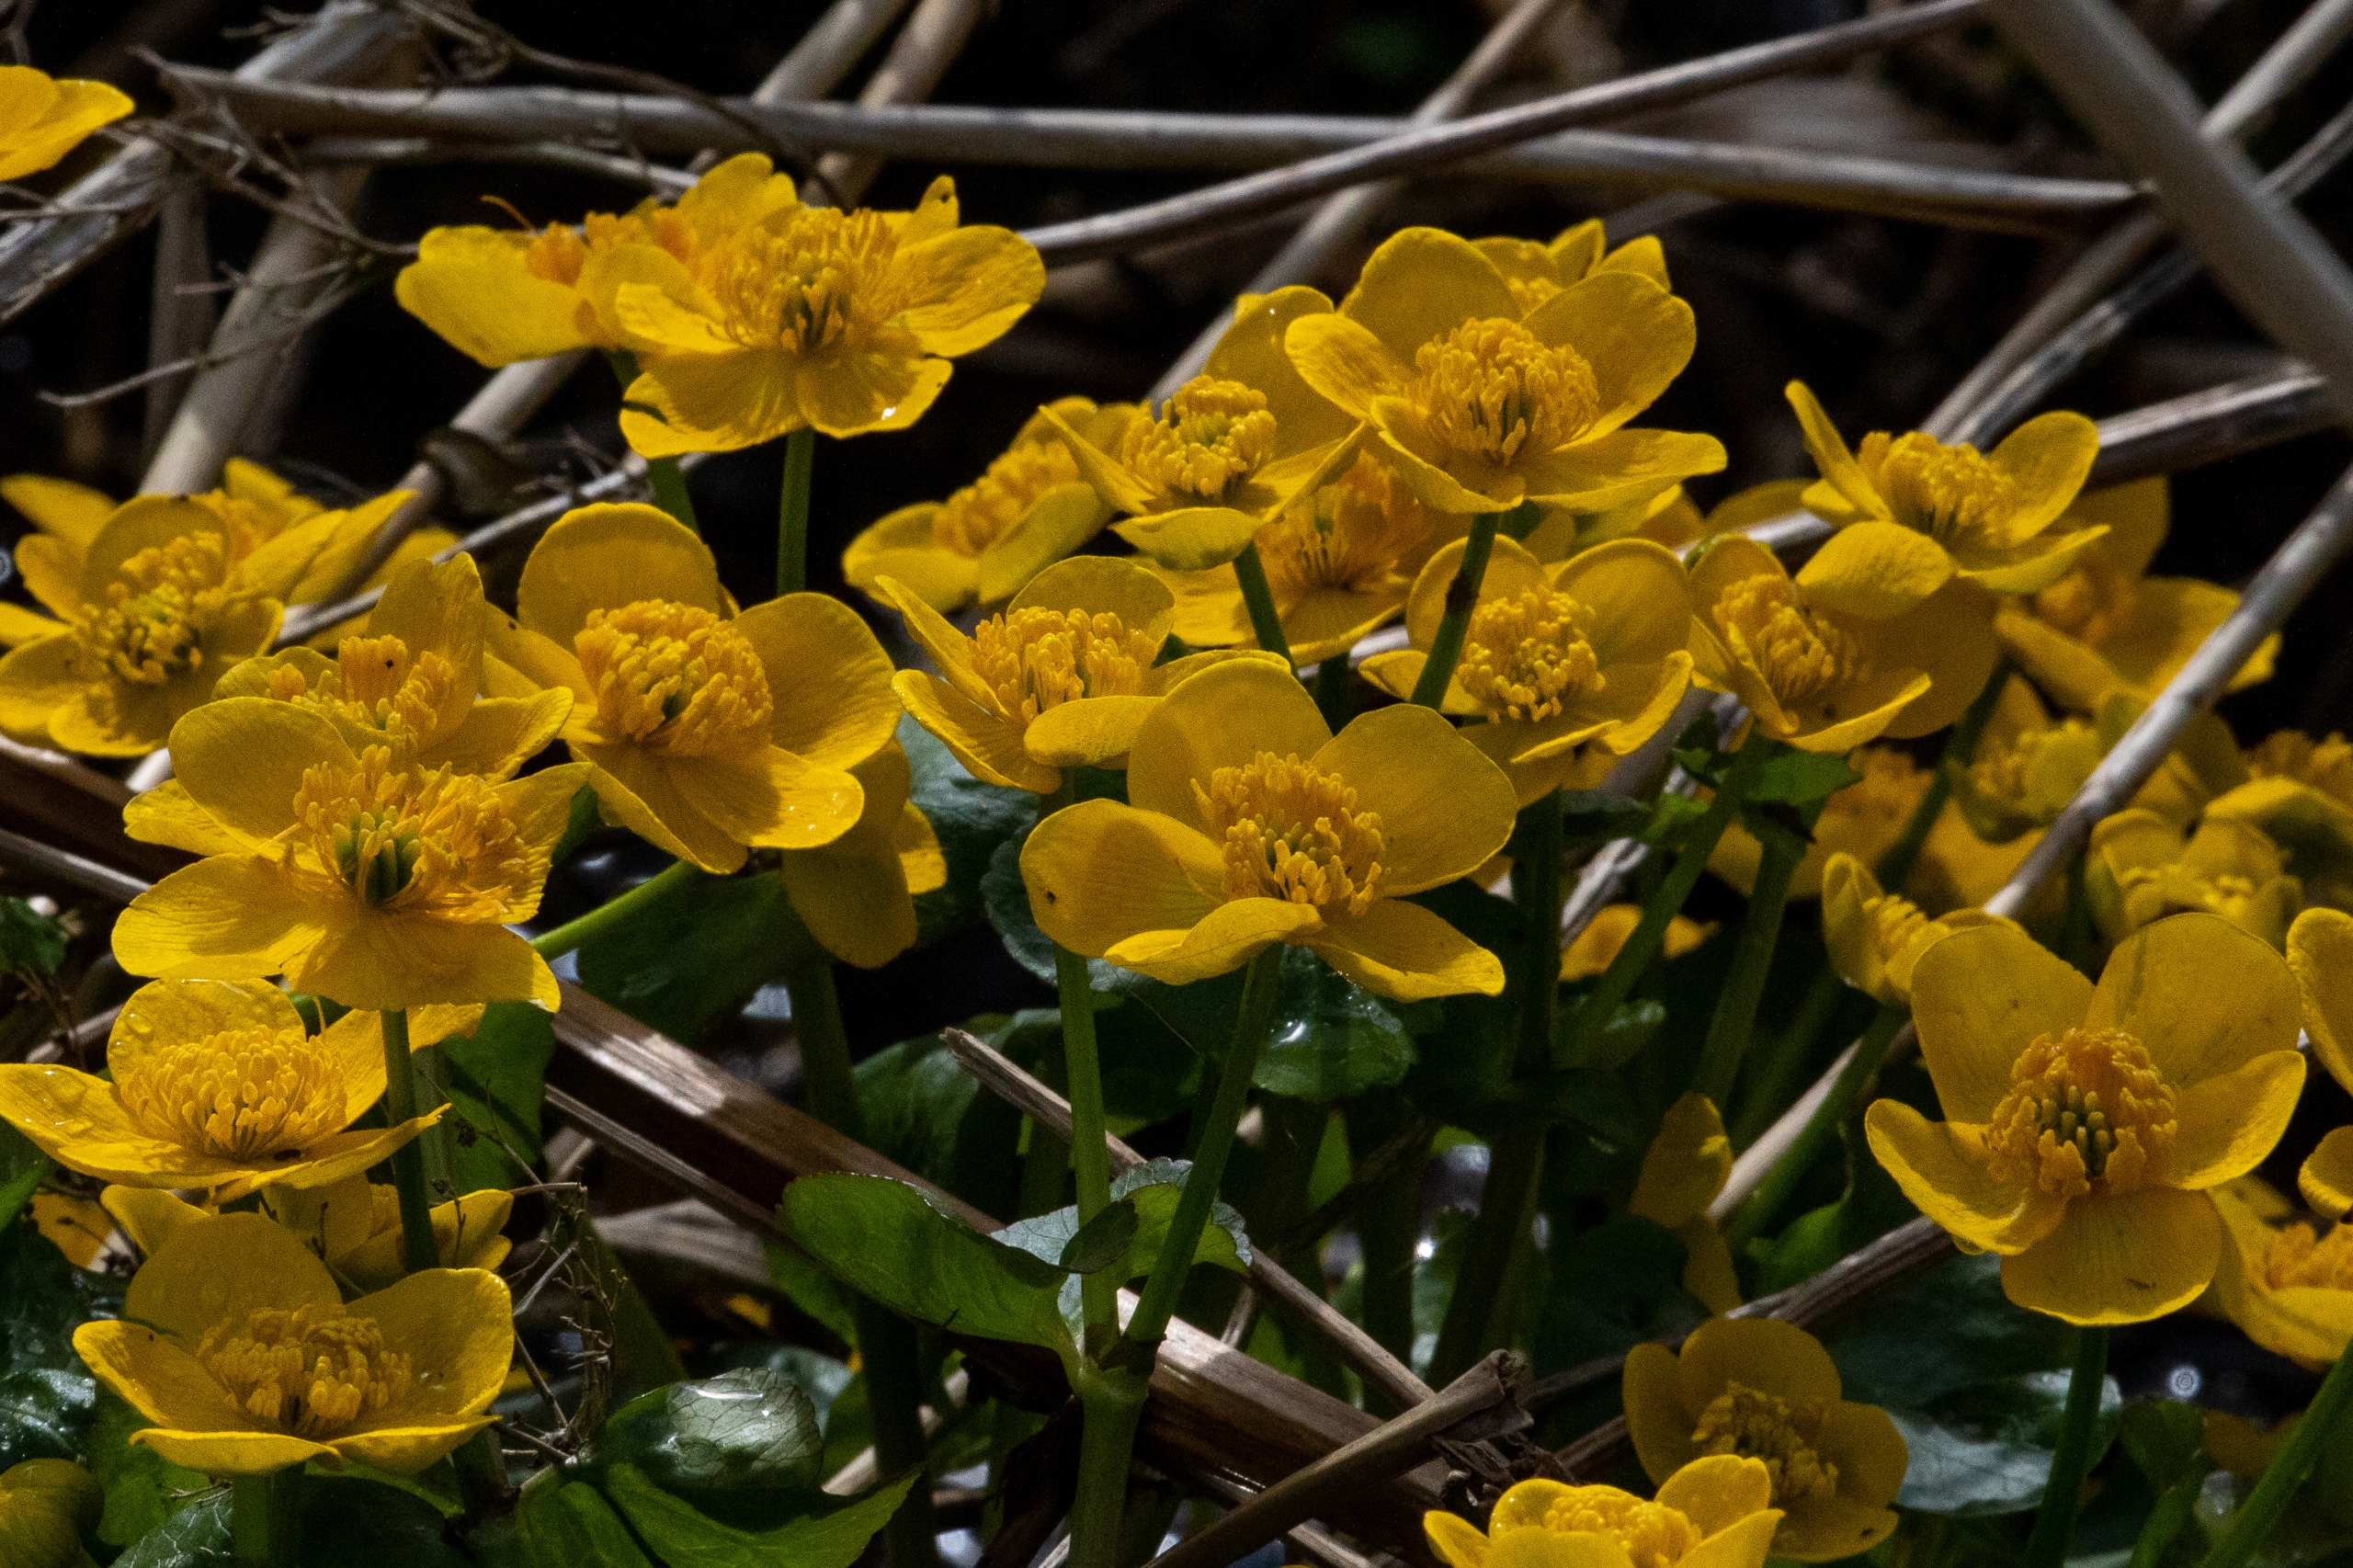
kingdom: Plantae
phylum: Tracheophyta
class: Magnoliopsida
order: Ranunculales
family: Ranunculaceae
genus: Caltha
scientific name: Caltha palustris
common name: Eng-kabbeleje
